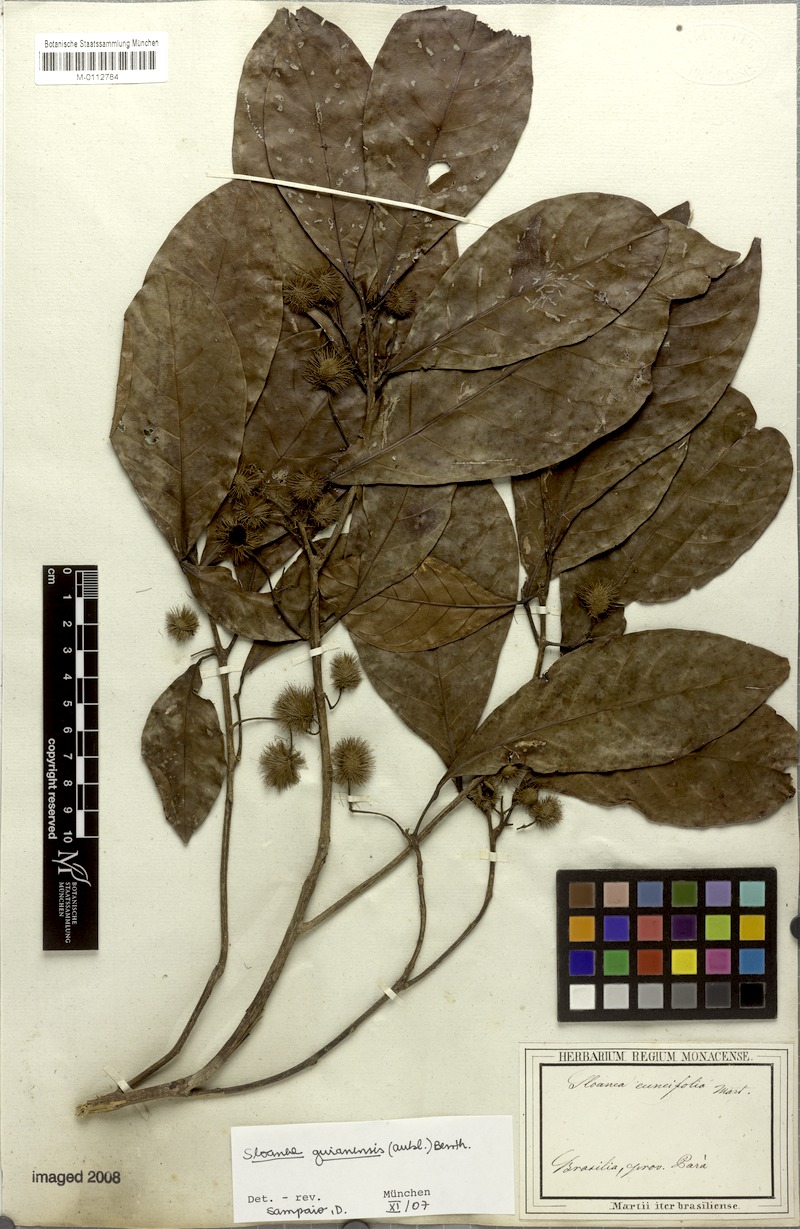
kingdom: Plantae
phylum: Tracheophyta
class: Magnoliopsida
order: Oxalidales
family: Elaeocarpaceae
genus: Sloanea
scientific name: Sloanea guianensis
